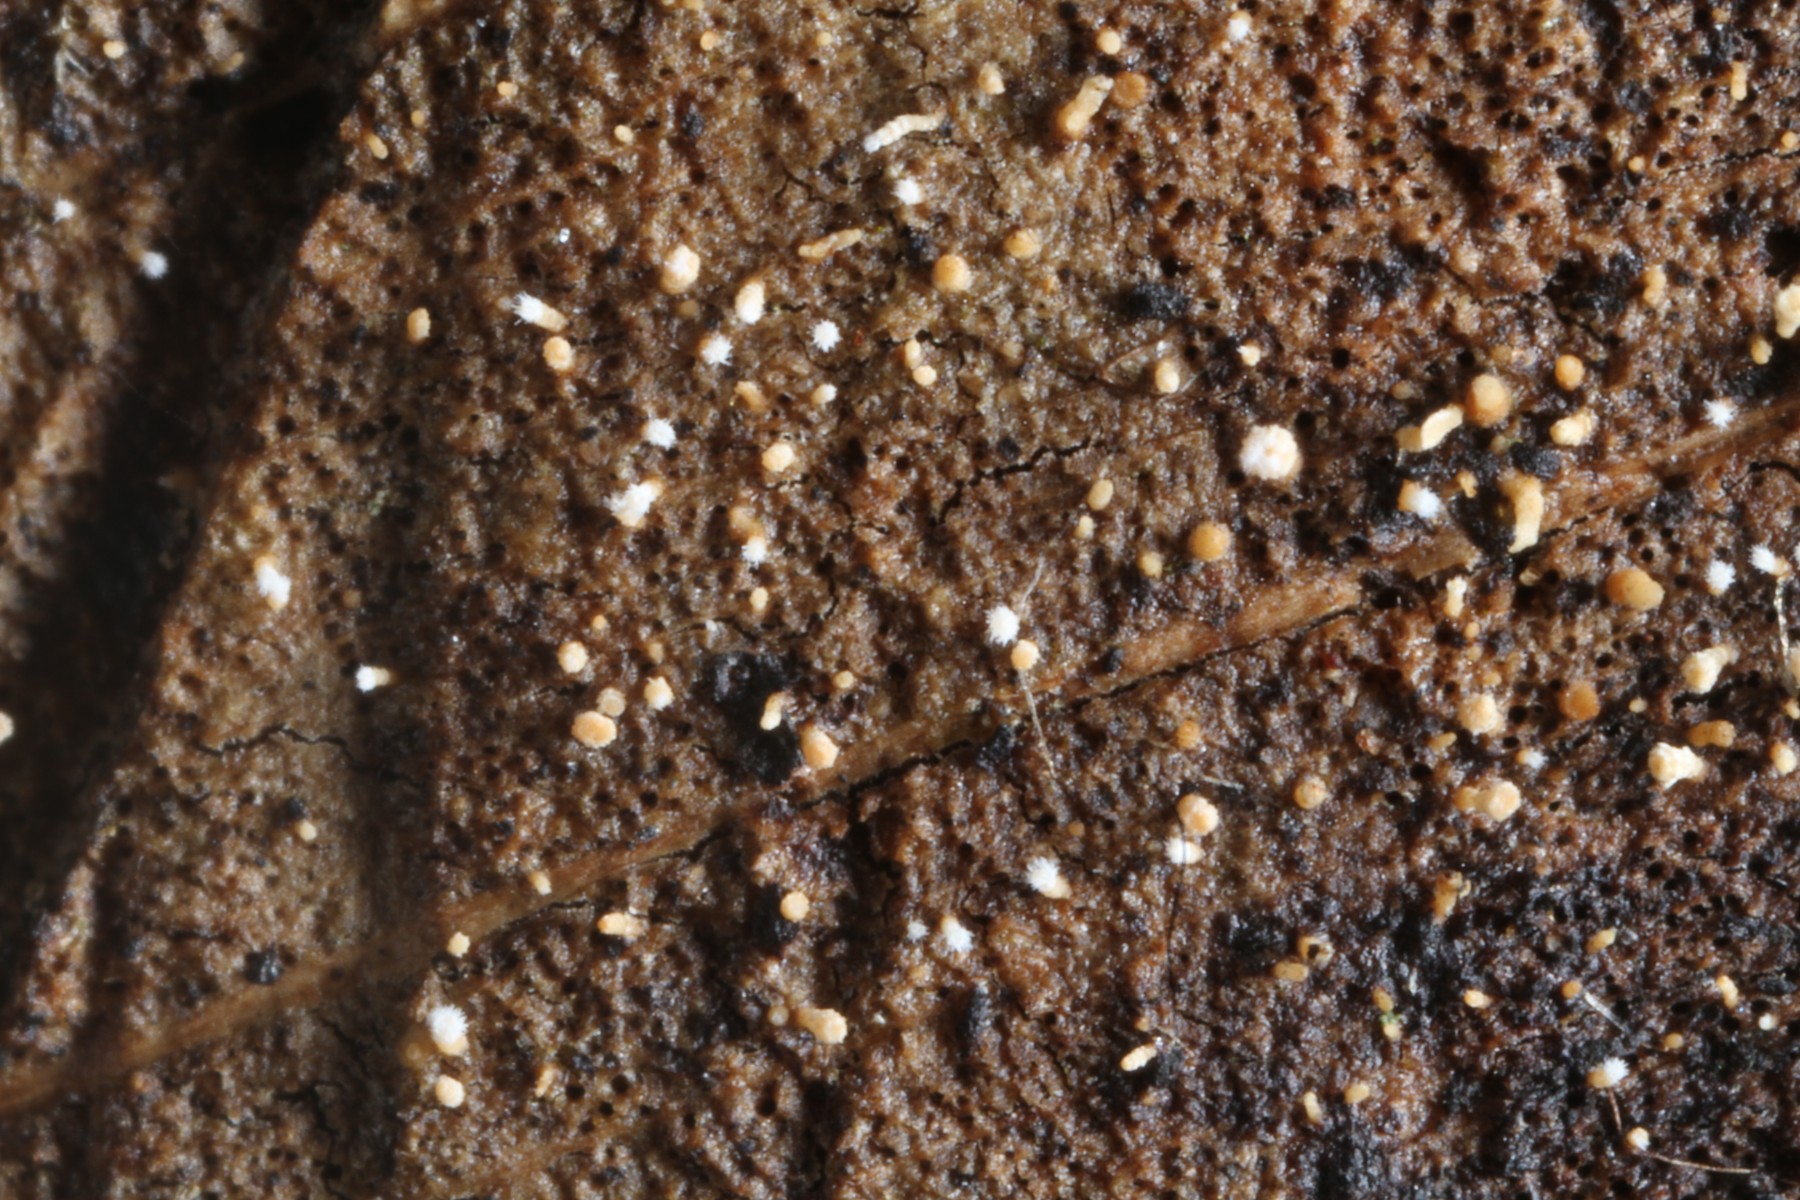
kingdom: Fungi
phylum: Ascomycota
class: Leotiomycetes
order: Helotiales
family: Lachnaceae
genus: Lachnum
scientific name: Lachnum
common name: frynseskive
